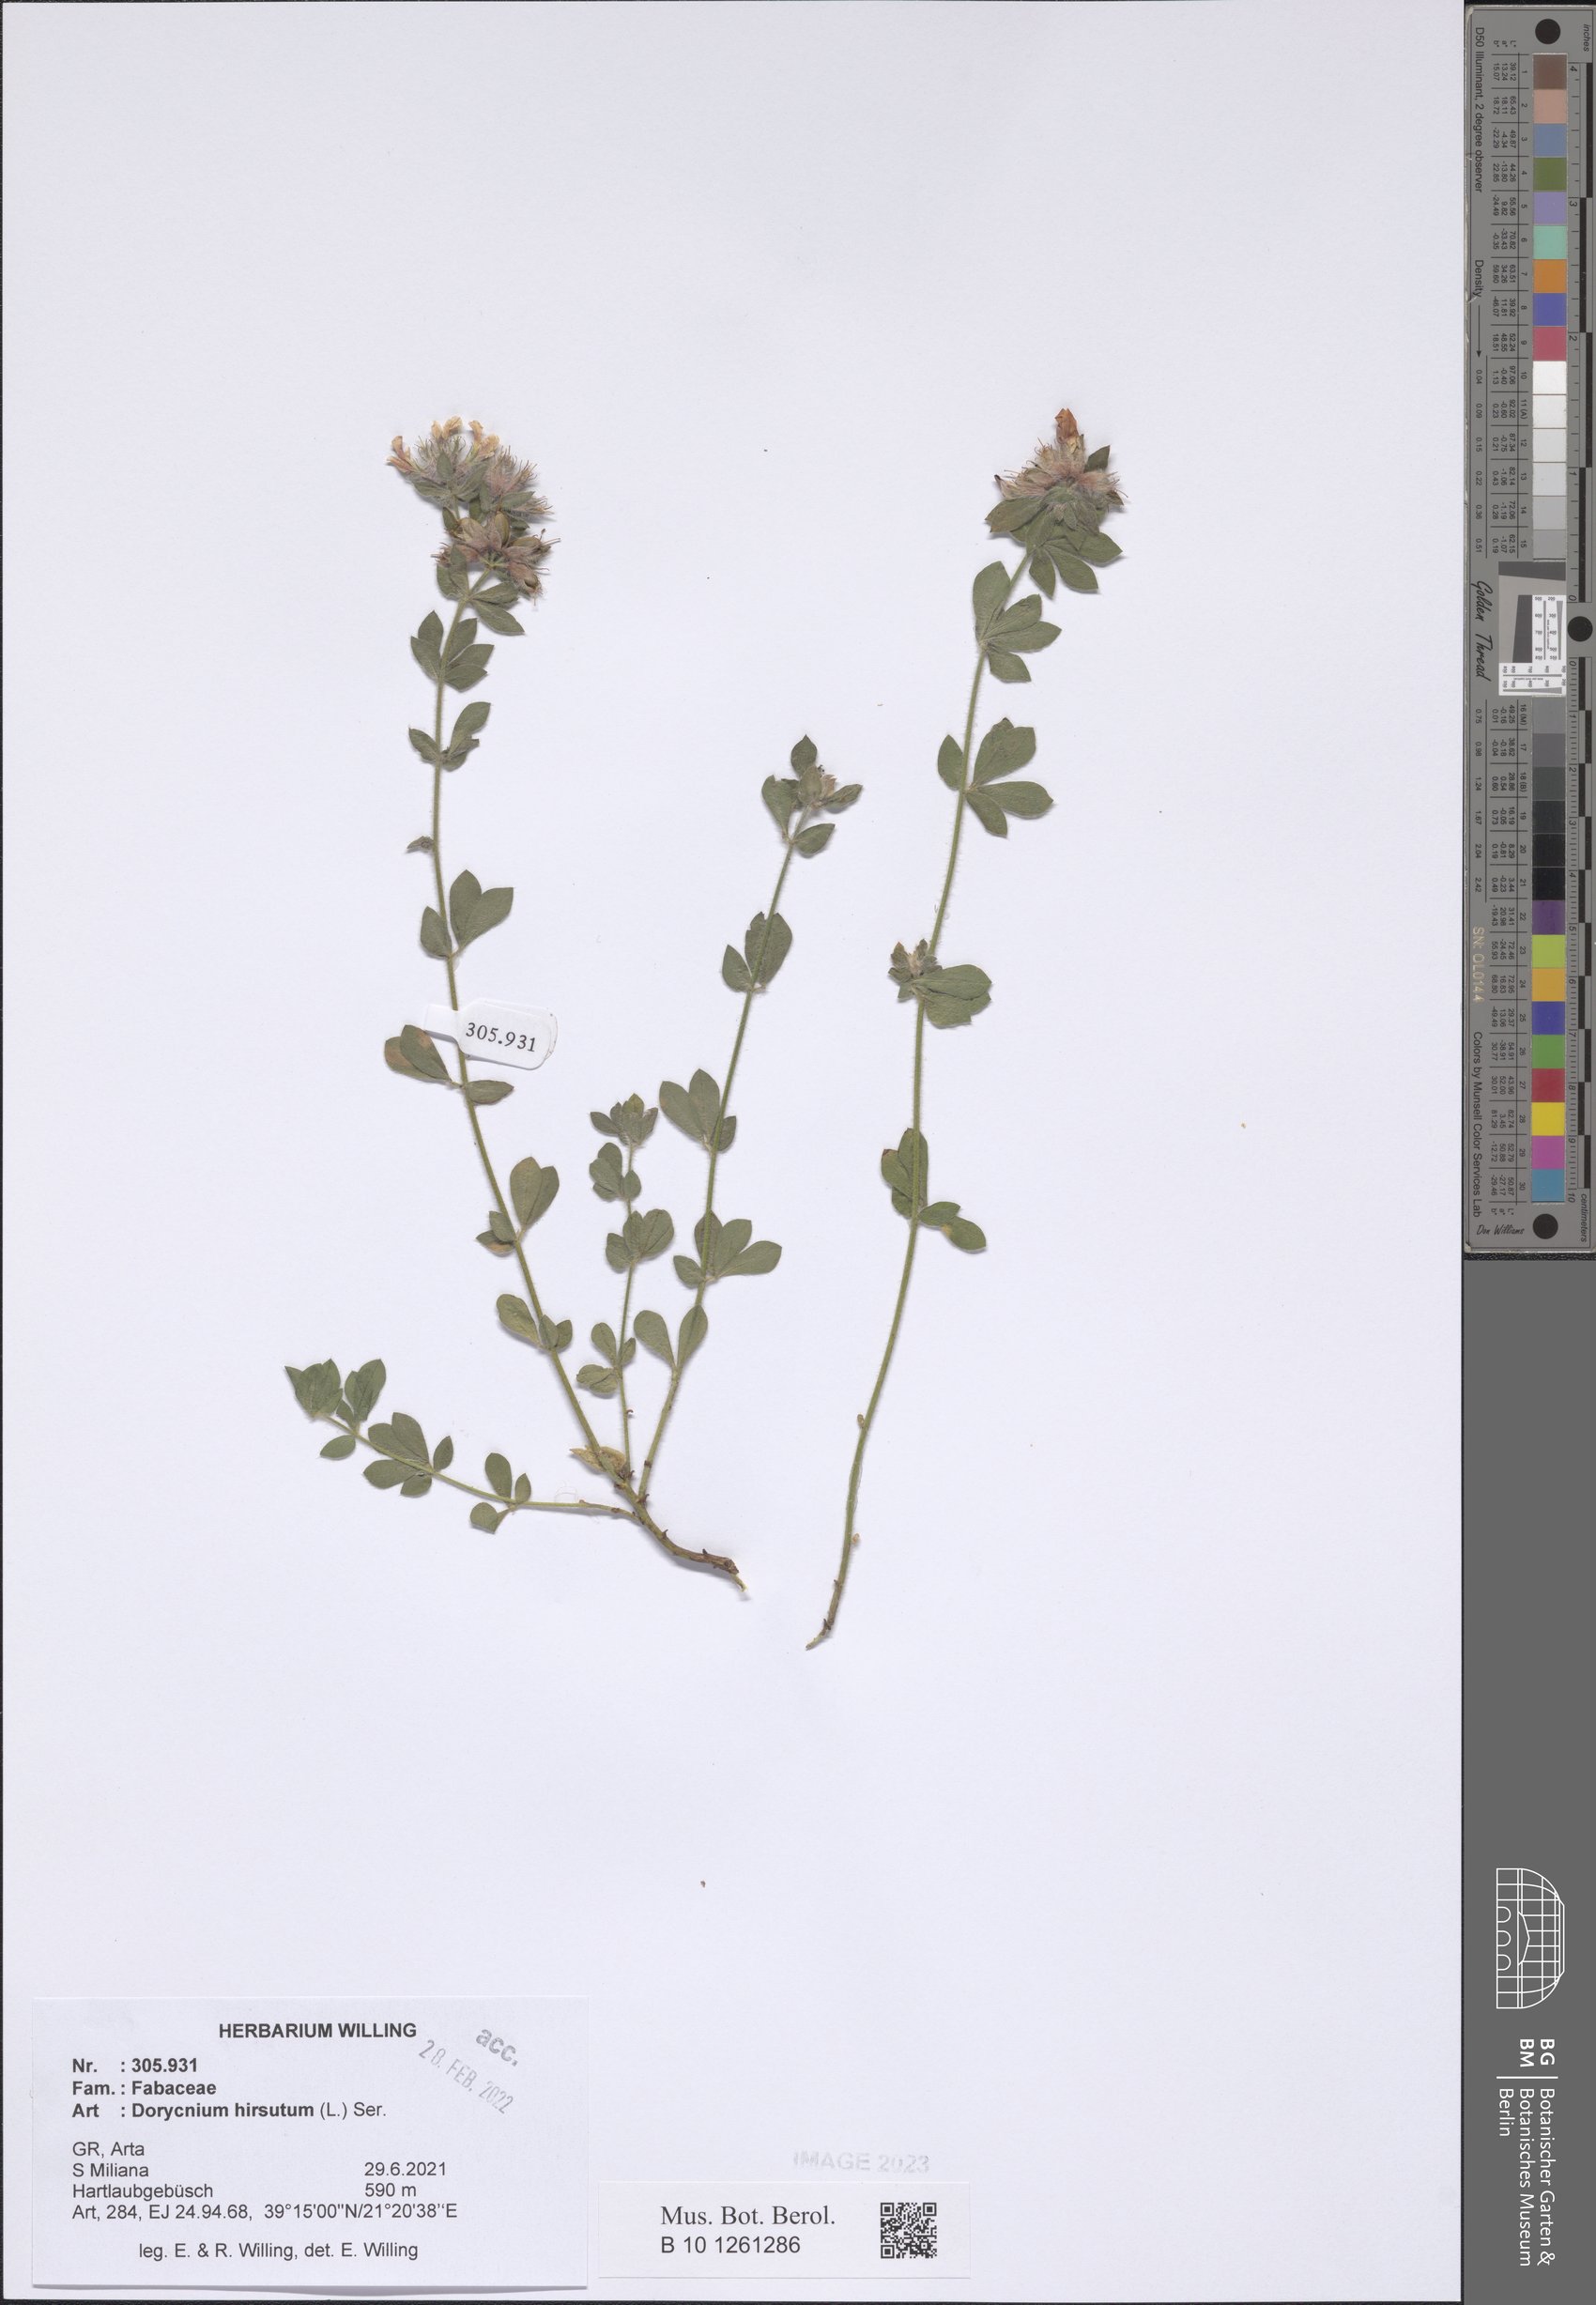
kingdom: Plantae
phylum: Tracheophyta
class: Magnoliopsida
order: Fabales
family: Fabaceae
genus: Lotus
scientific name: Lotus hirsutus
